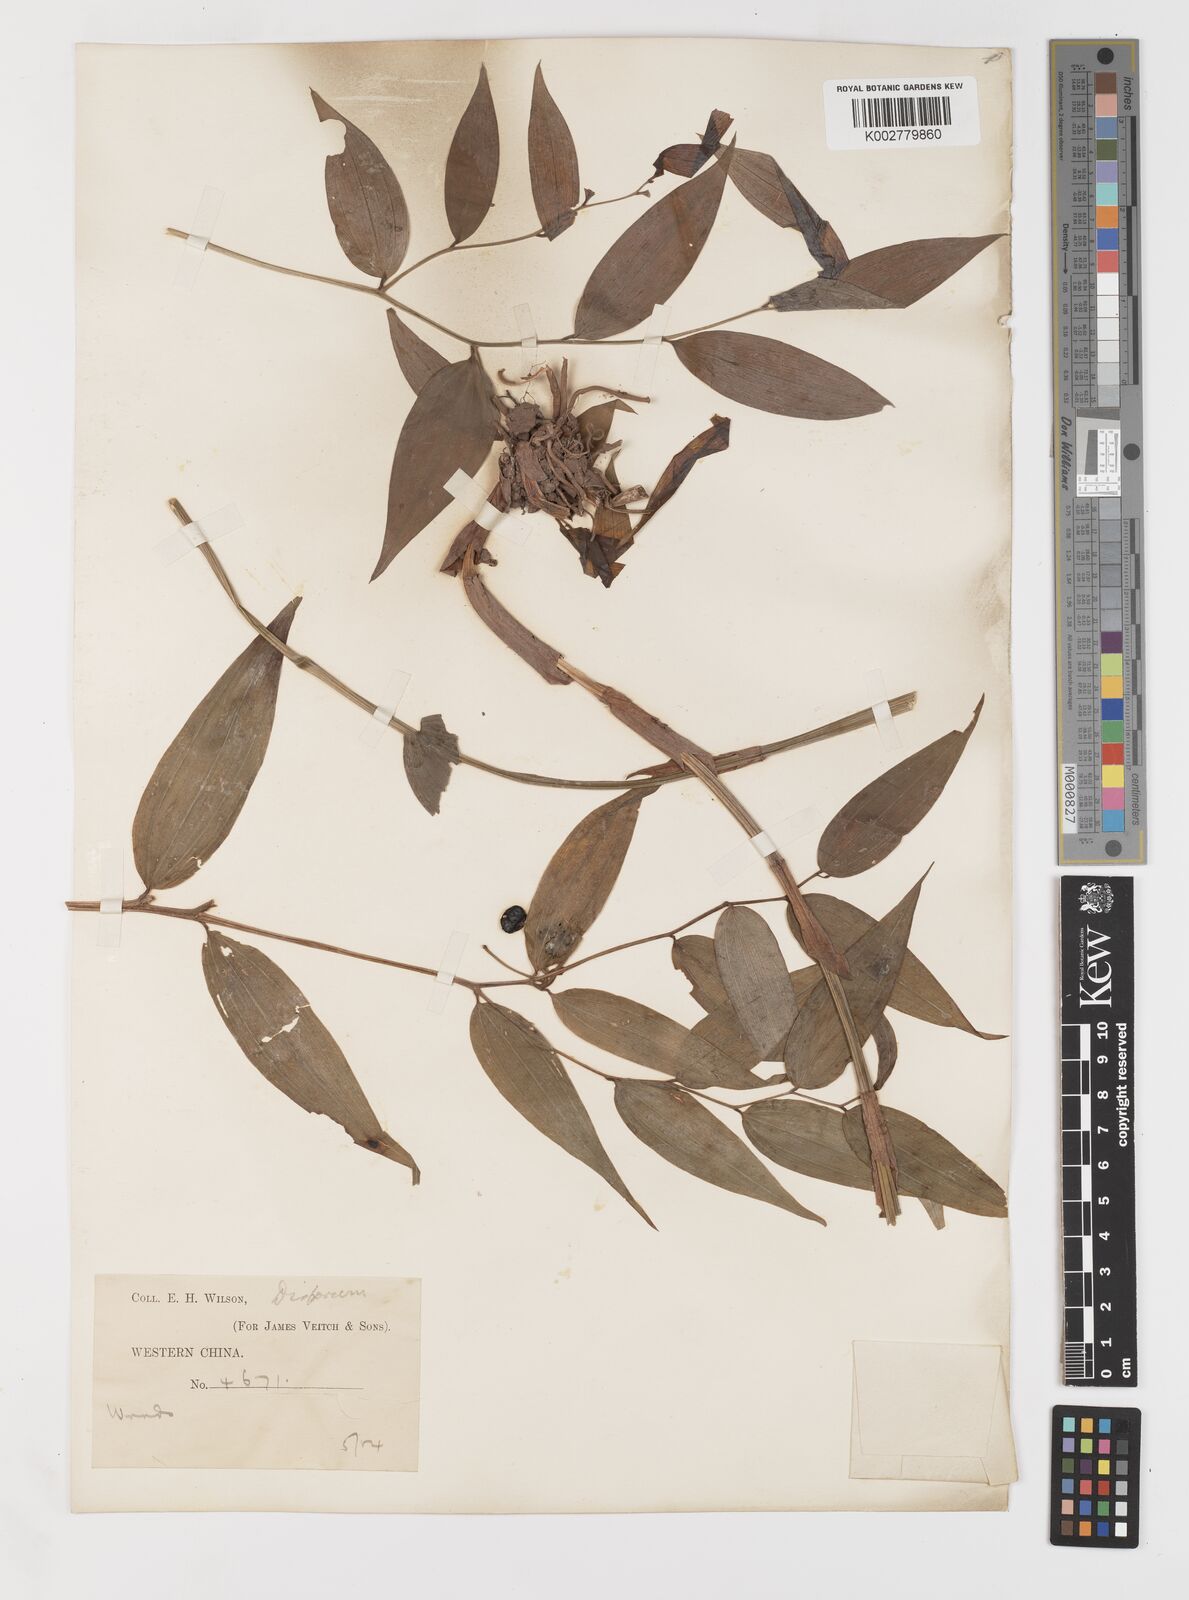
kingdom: Plantae
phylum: Tracheophyta
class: Liliopsida
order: Liliales
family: Colchicaceae
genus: Disporum
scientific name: Disporum
